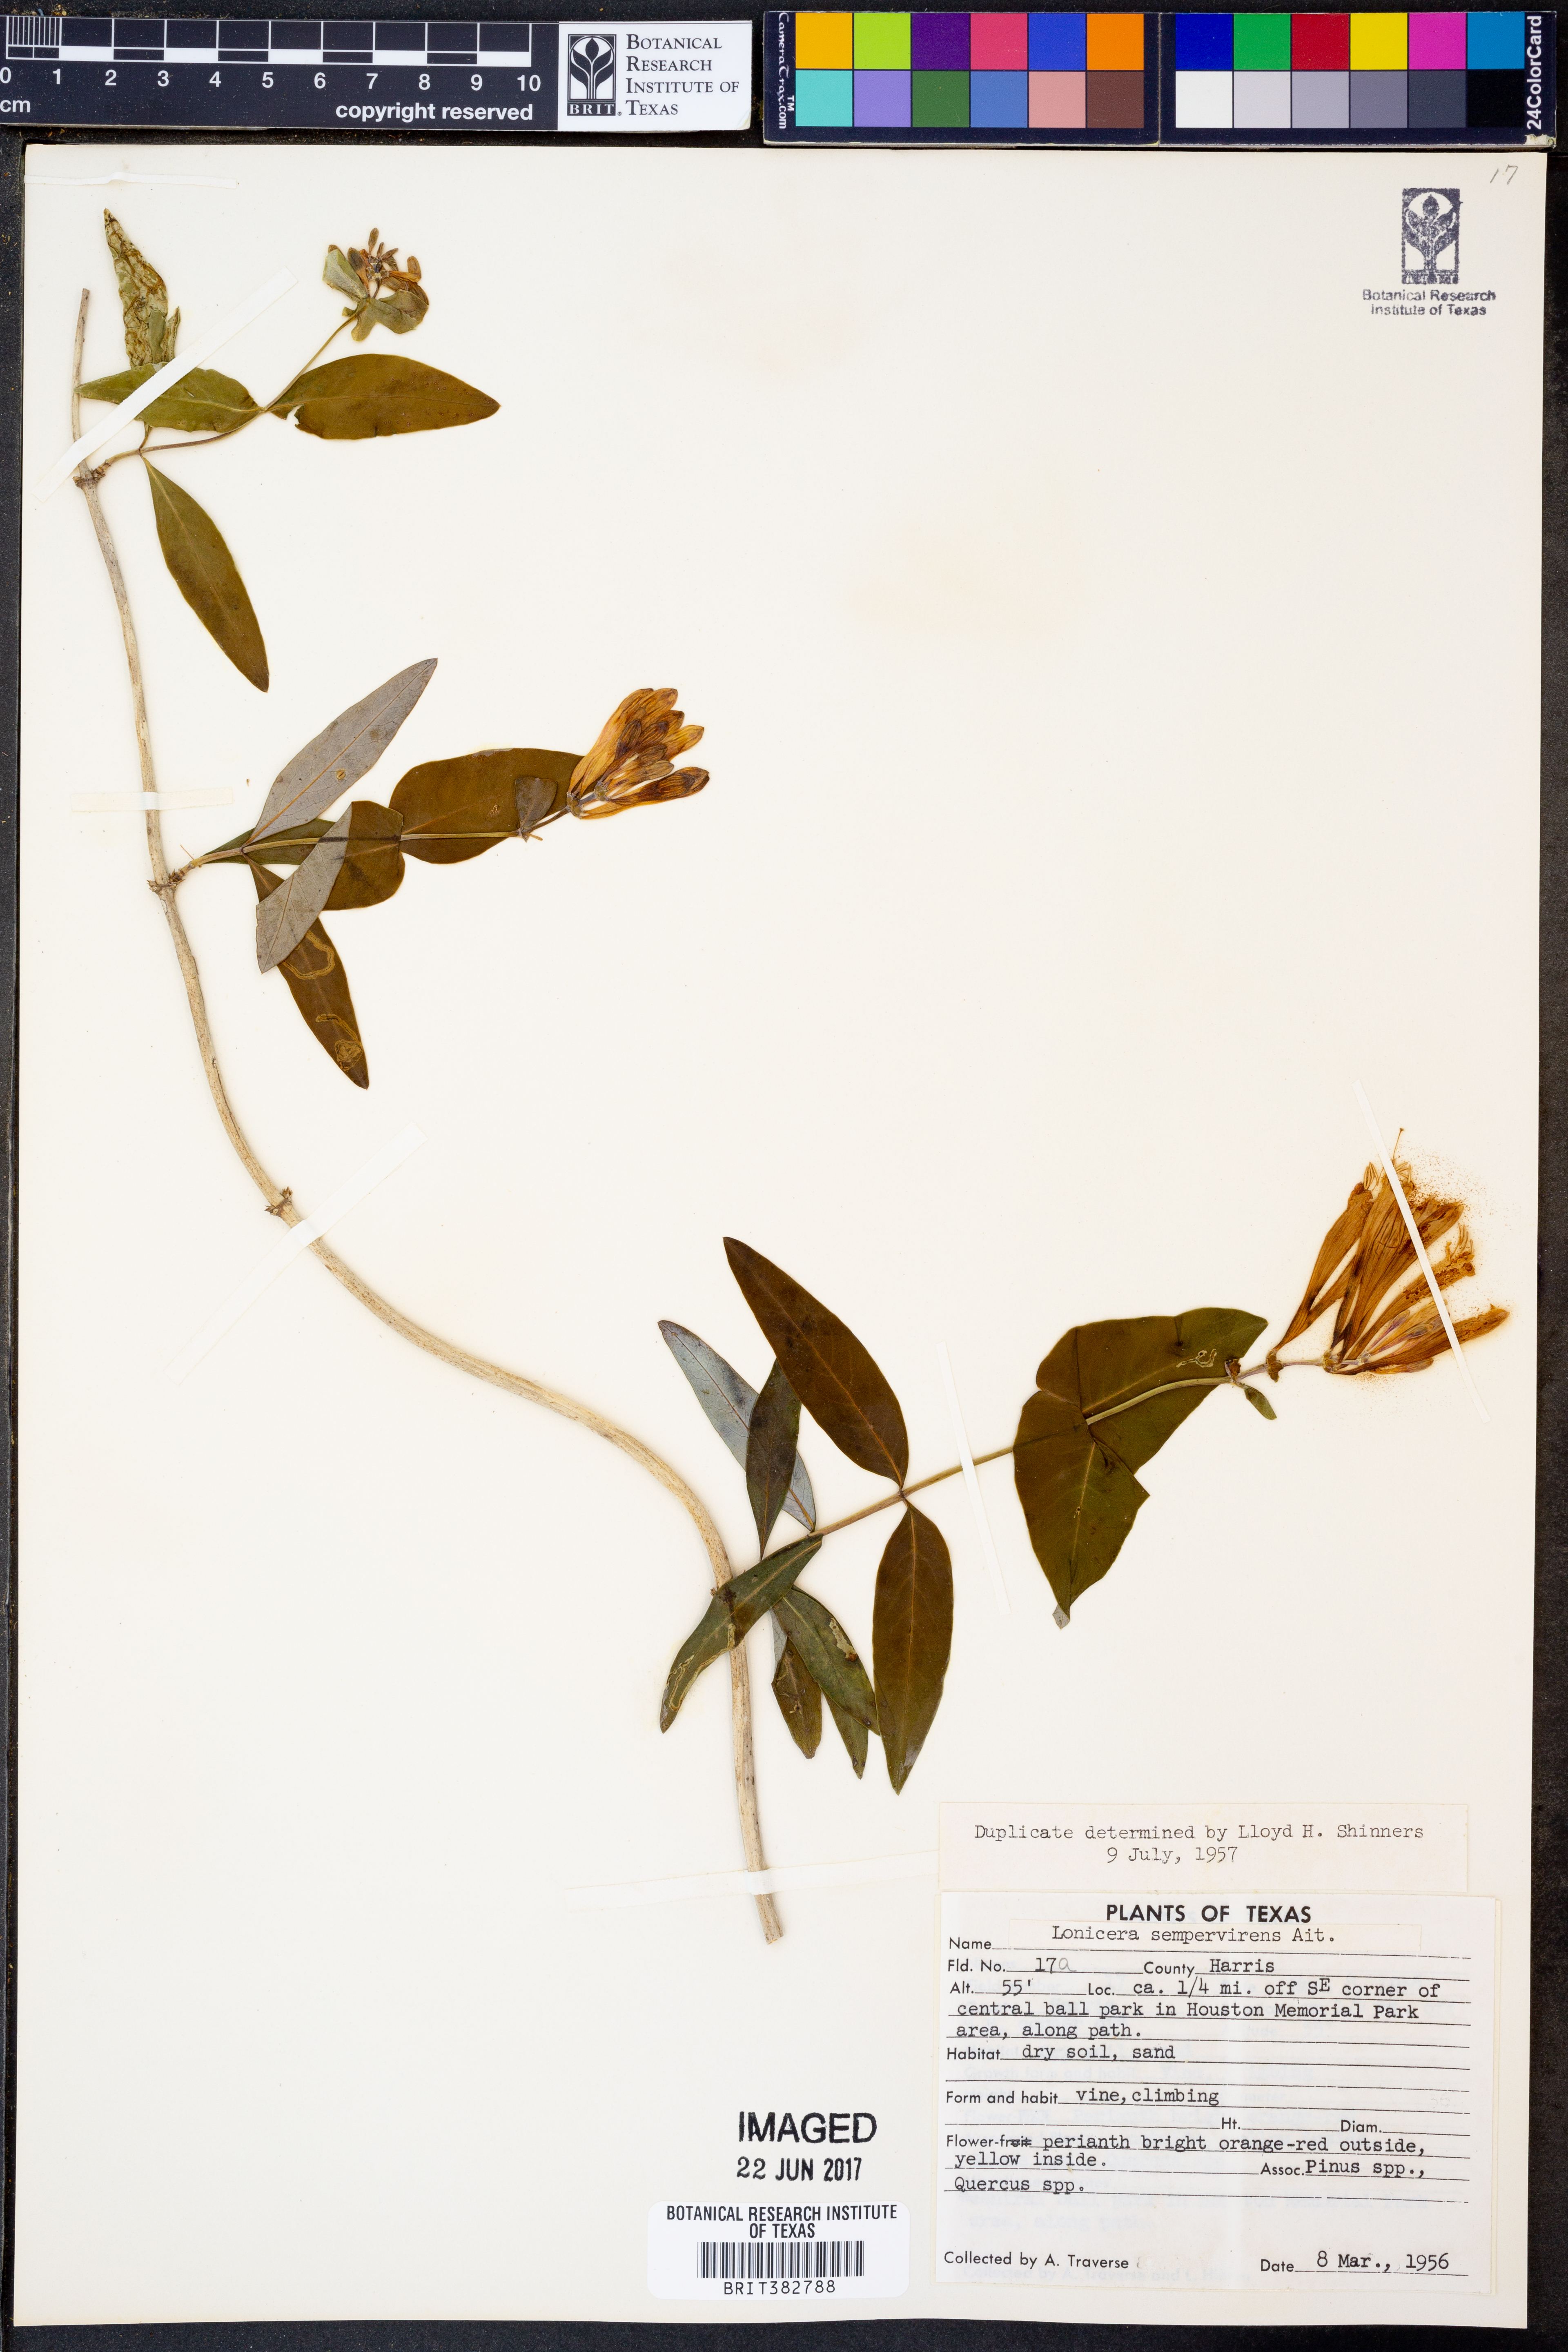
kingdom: Plantae
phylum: Tracheophyta
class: Magnoliopsida
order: Dipsacales
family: Caprifoliaceae
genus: Lonicera
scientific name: Lonicera sempervirens
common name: Coral honeysuckle
